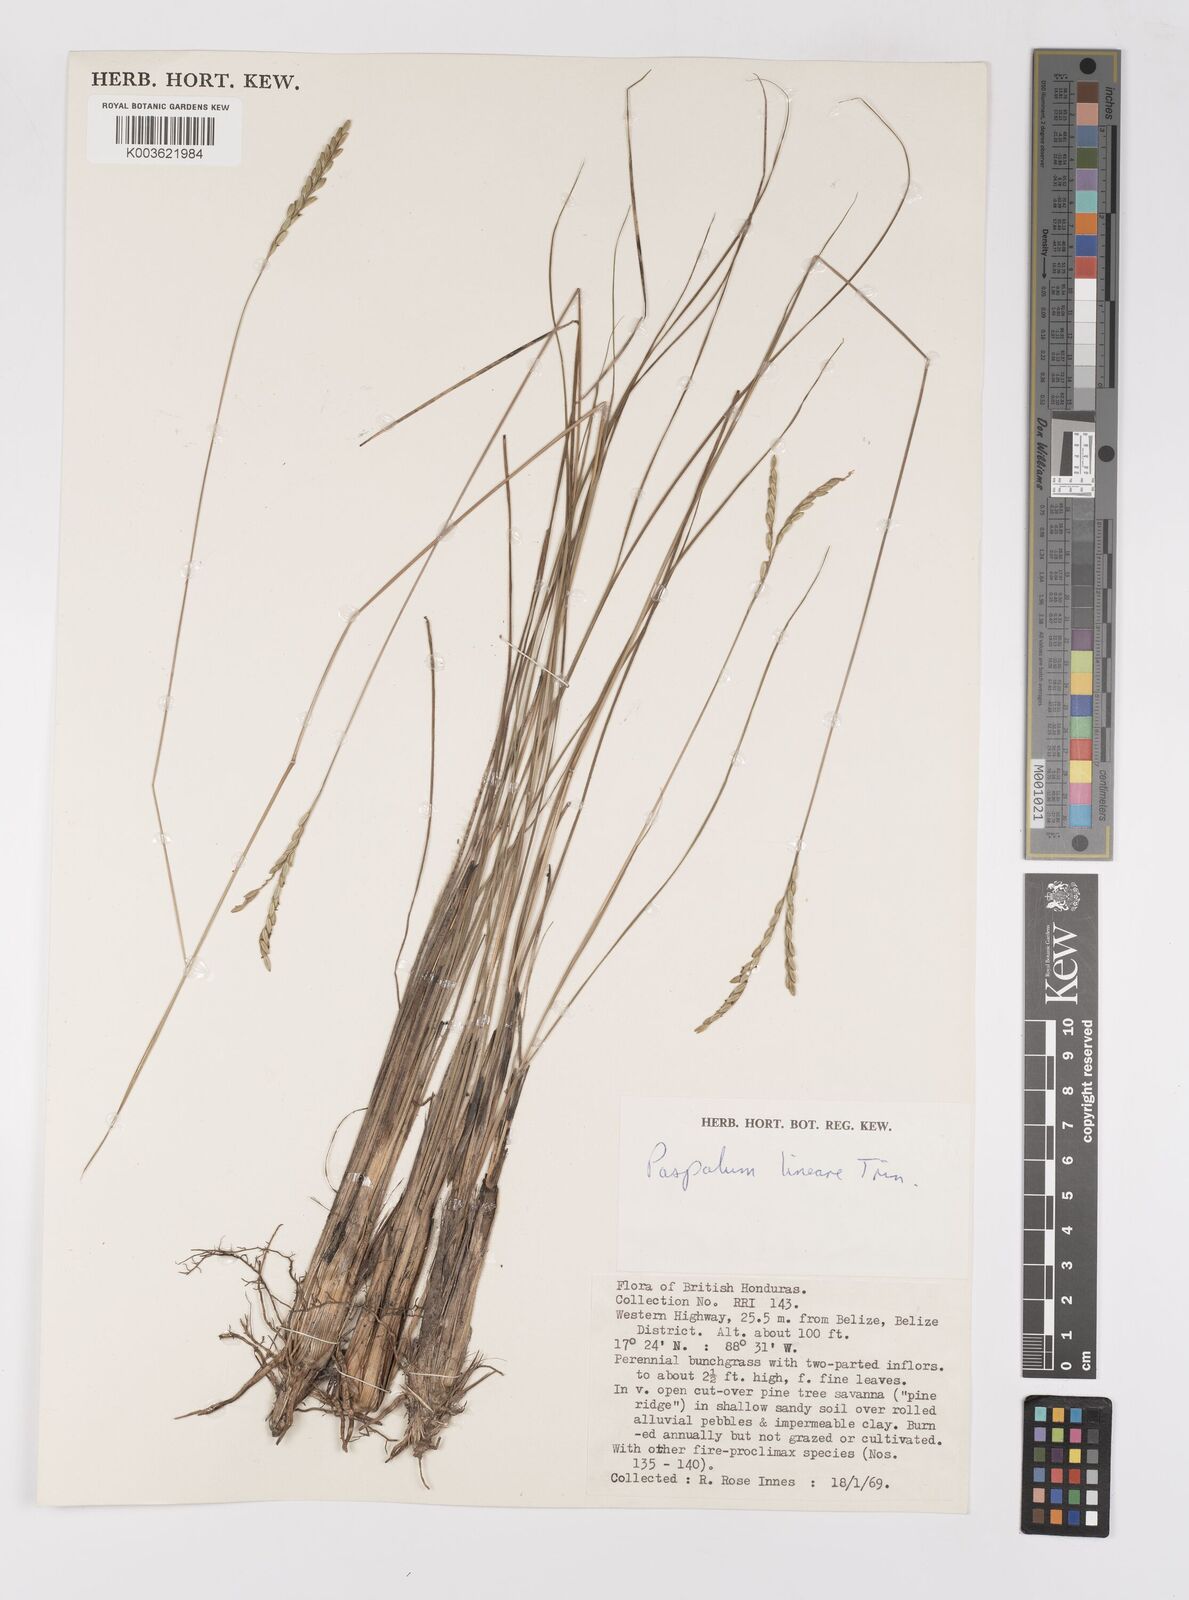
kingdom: Plantae
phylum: Tracheophyta
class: Liliopsida
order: Poales
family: Poaceae
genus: Paspalum
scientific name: Paspalum lineare
